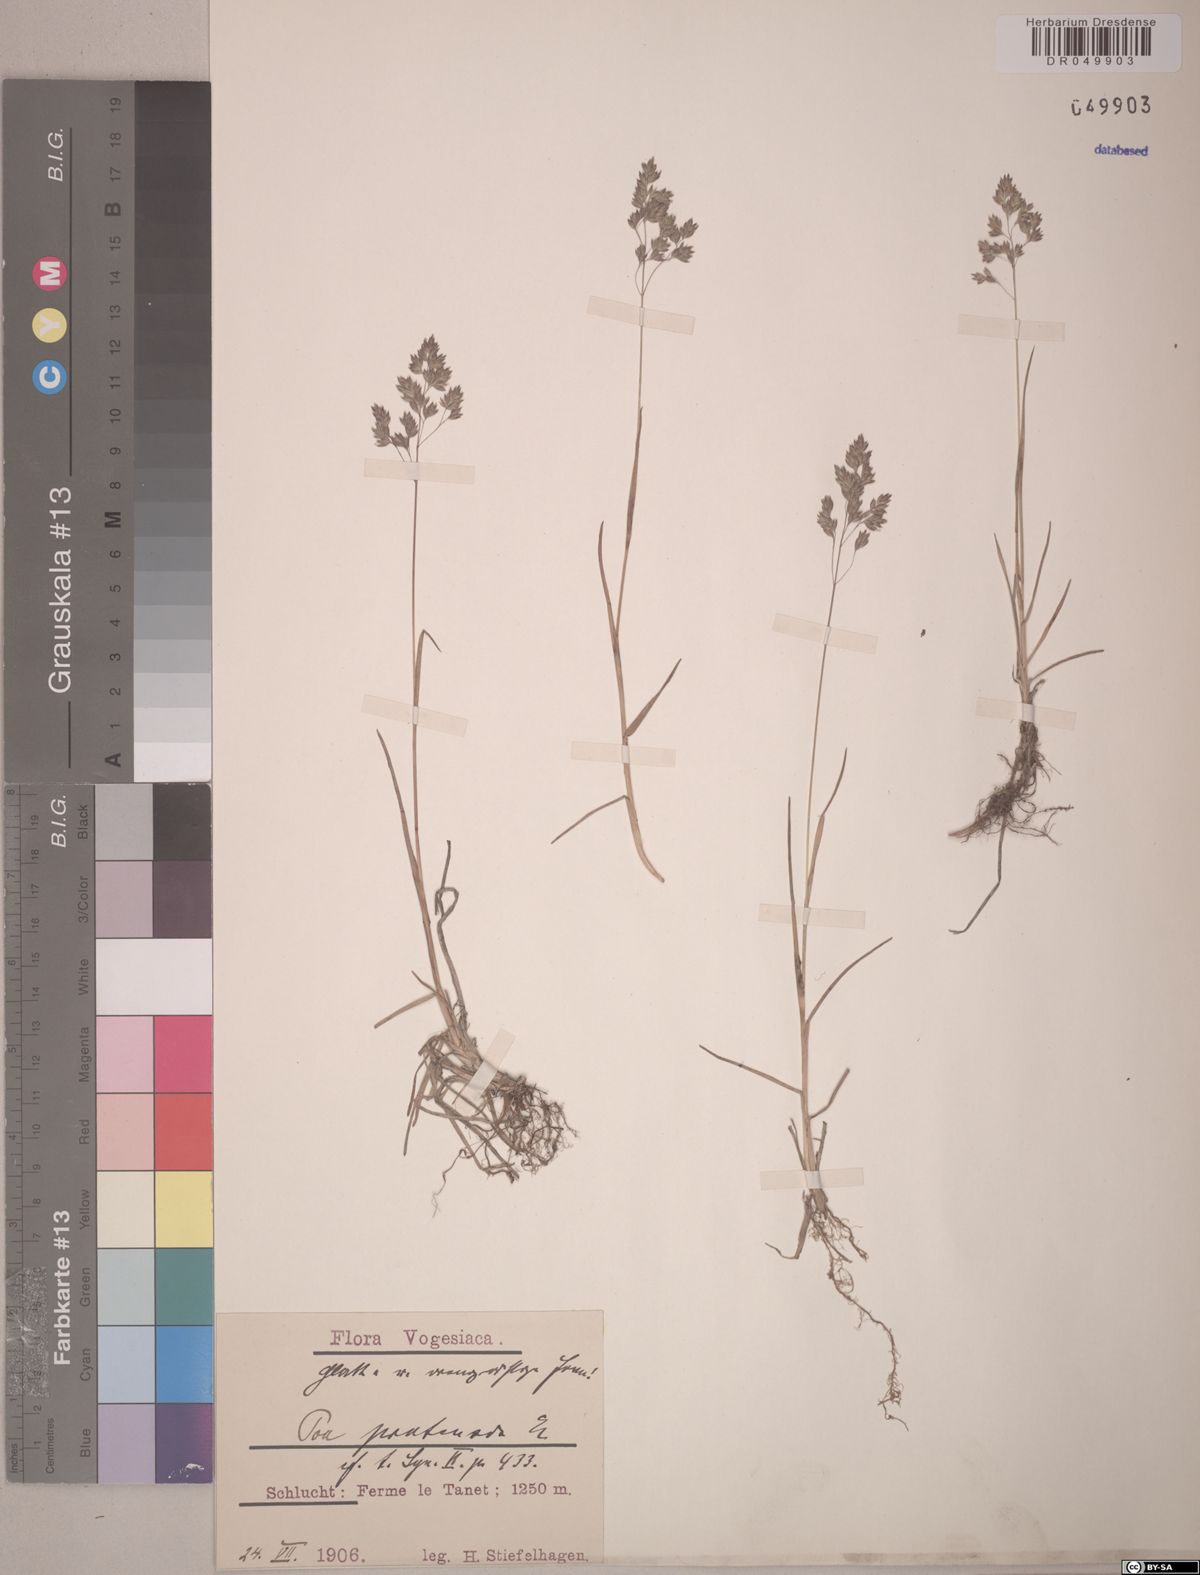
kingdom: Plantae
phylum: Tracheophyta
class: Liliopsida
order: Poales
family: Poaceae
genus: Poa
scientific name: Poa pratensis
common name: Kentucky bluegrass
